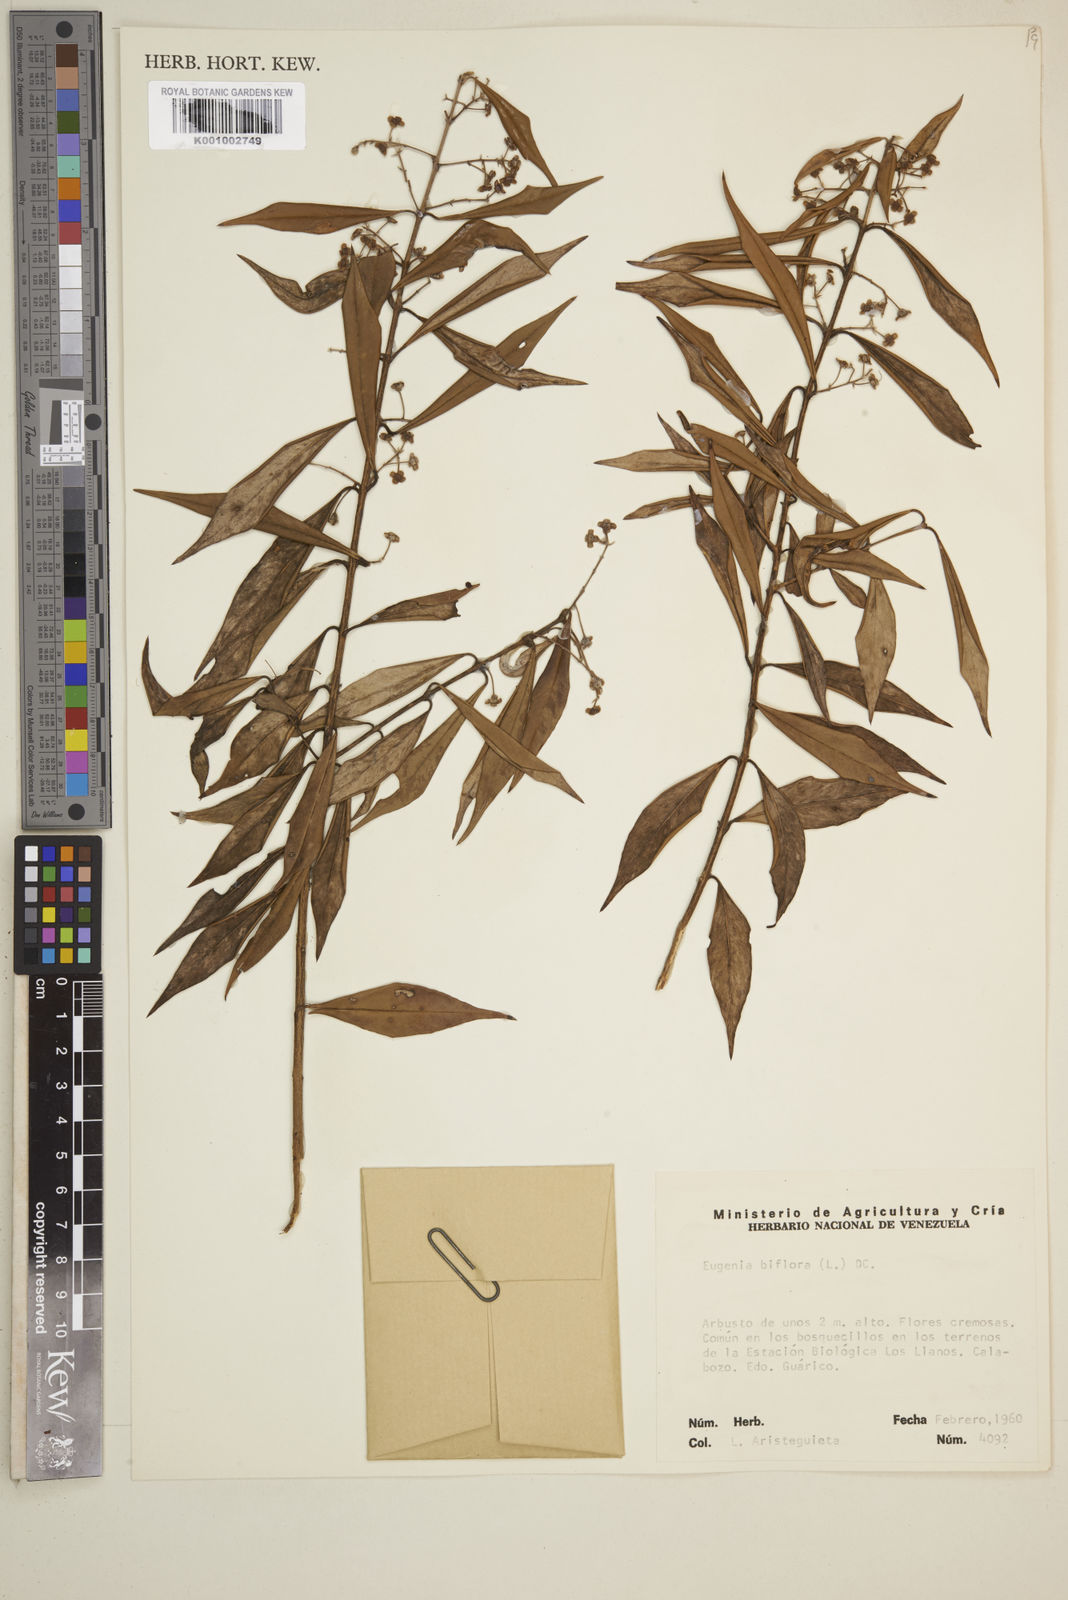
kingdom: Plantae
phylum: Tracheophyta
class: Magnoliopsida
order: Myrtales
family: Myrtaceae
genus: Eugenia
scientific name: Eugenia biflora
